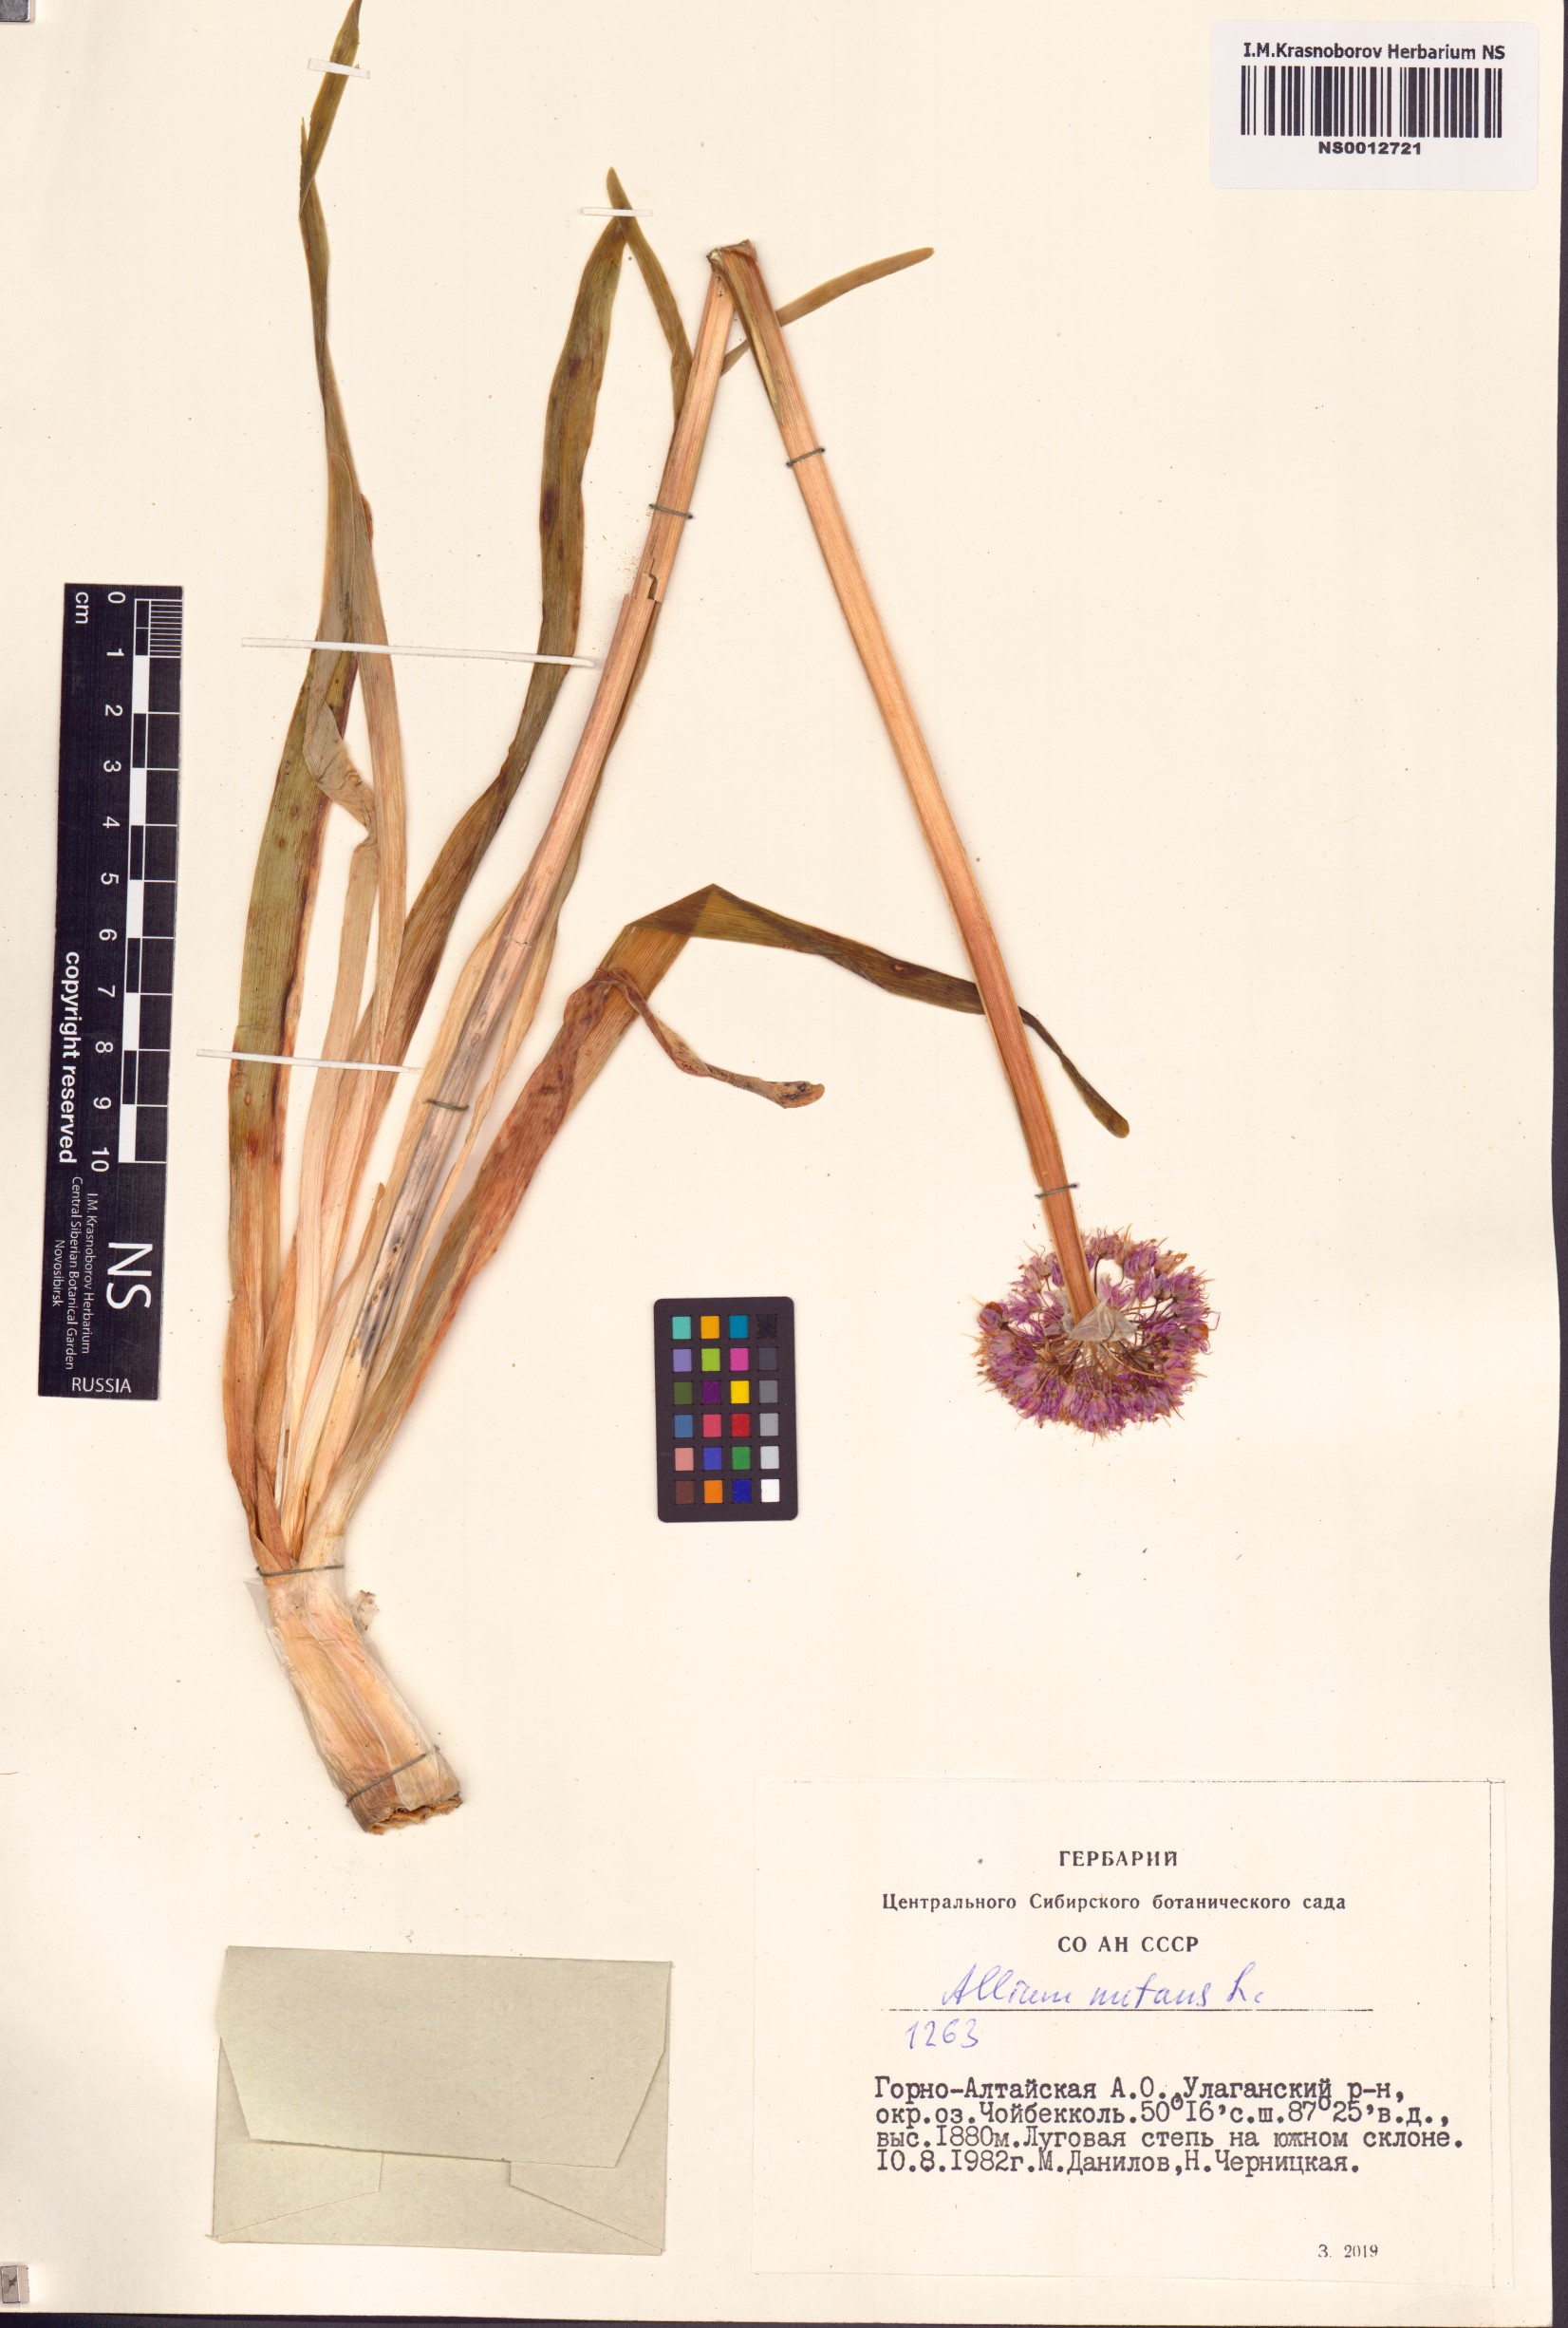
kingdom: Plantae
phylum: Tracheophyta
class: Liliopsida
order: Asparagales
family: Amaryllidaceae
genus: Allium
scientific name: Allium nutans
